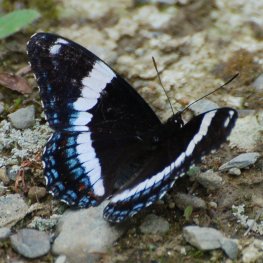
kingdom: Animalia
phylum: Arthropoda
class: Insecta
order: Lepidoptera
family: Nymphalidae
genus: Limenitis
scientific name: Limenitis arthemis
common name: Red-spotted Admiral
